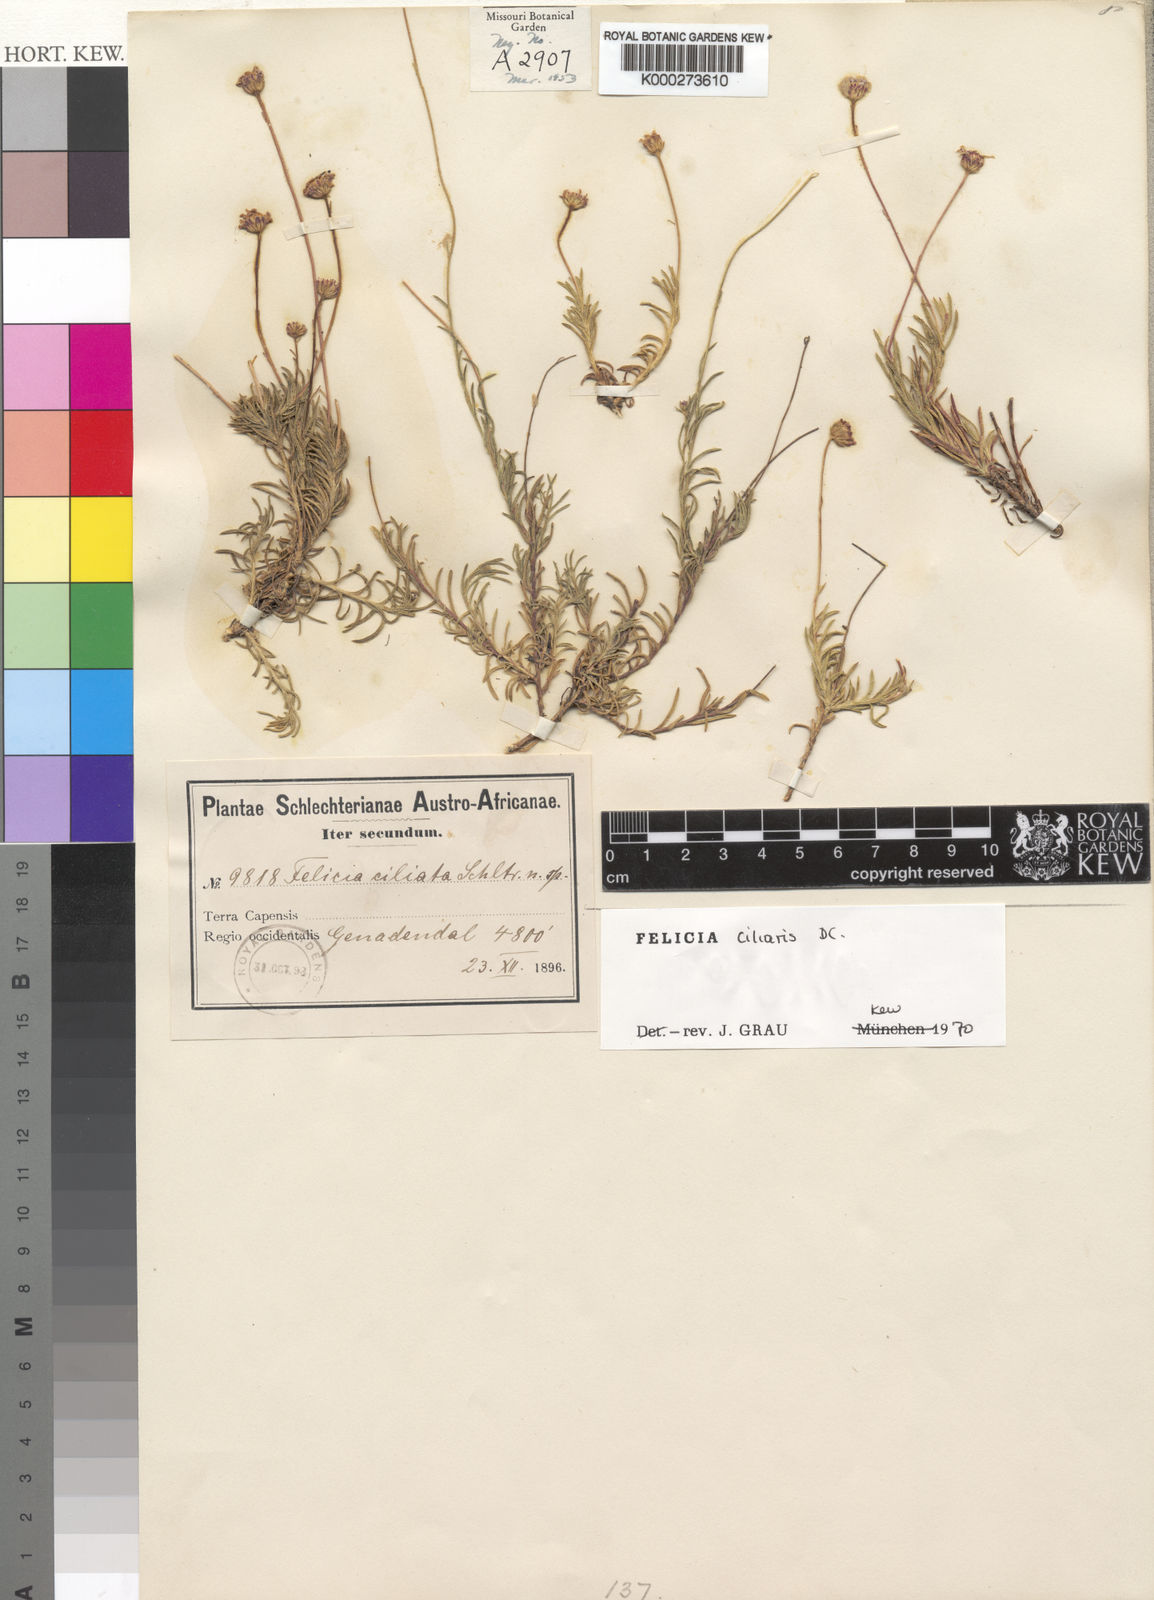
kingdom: Plantae
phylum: Tracheophyta
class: Magnoliopsida
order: Asterales
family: Asteraceae
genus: Zyrphelis
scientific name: Zyrphelis ciliaris
